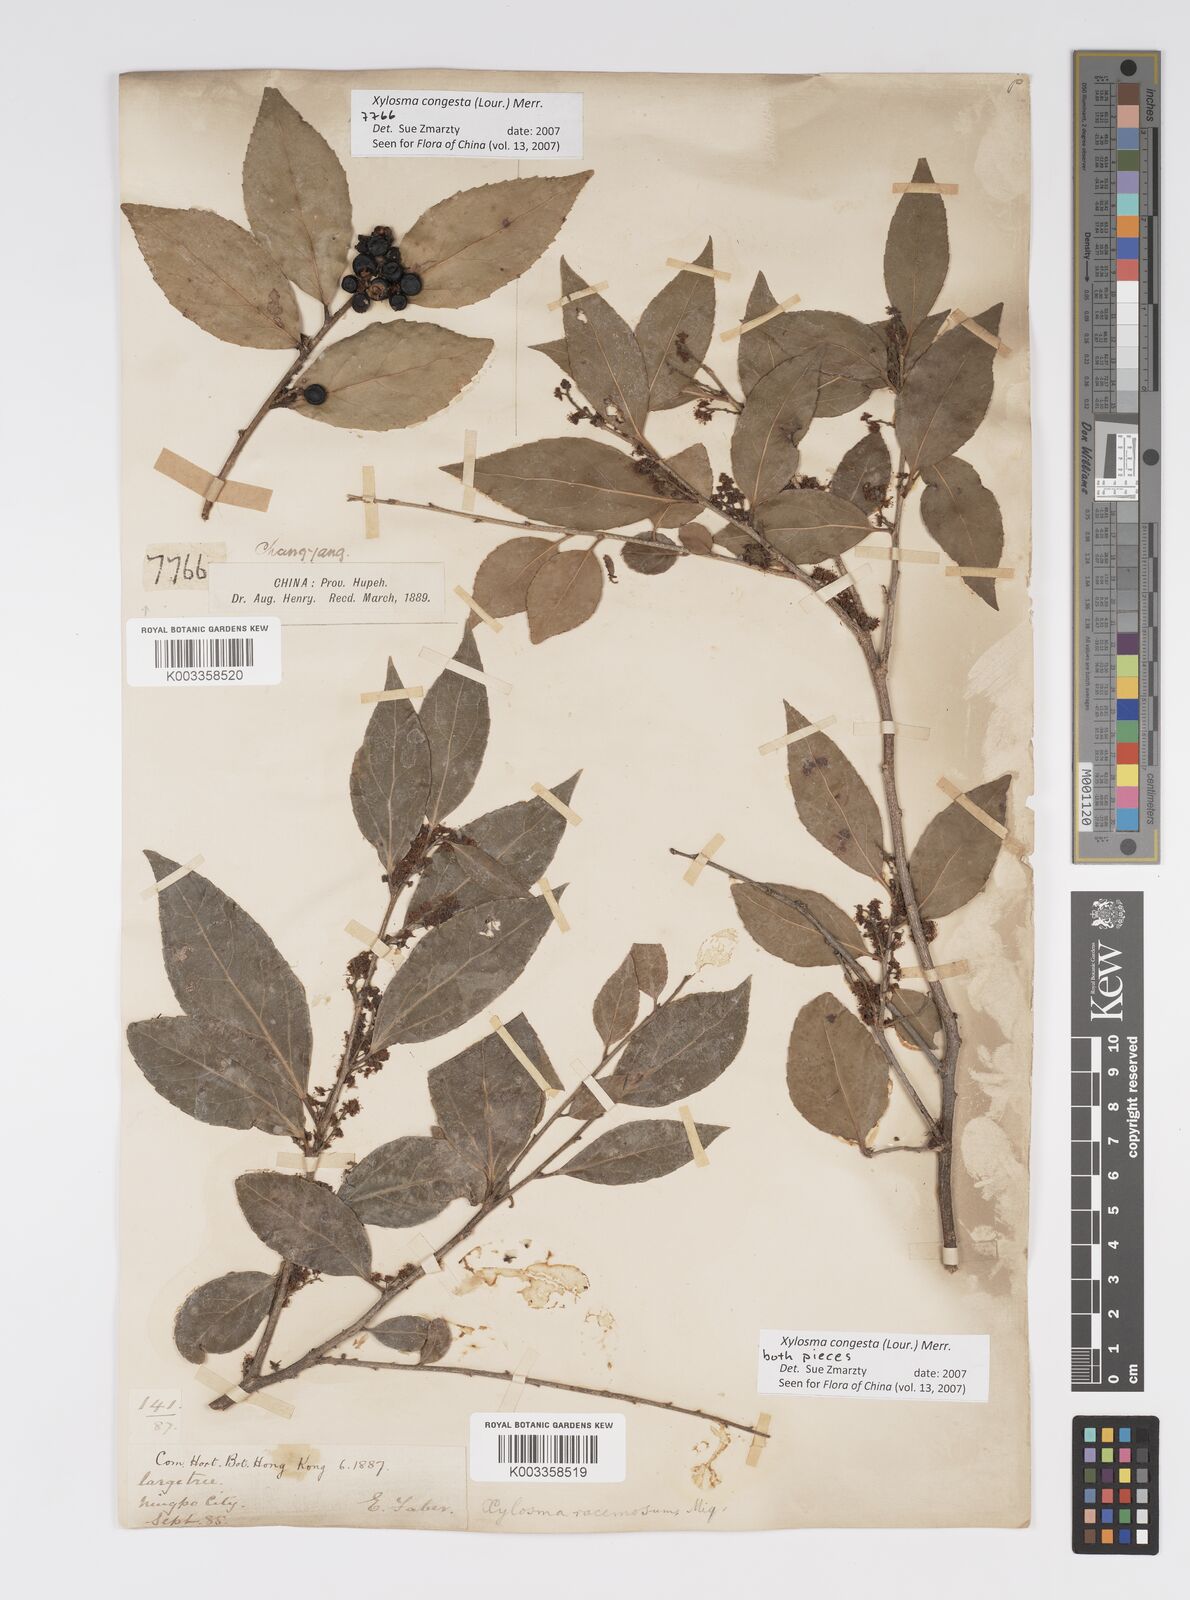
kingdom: Plantae
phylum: Tracheophyta
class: Magnoliopsida
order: Malpighiales
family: Salicaceae
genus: Xylosma
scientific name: Xylosma racemosum
